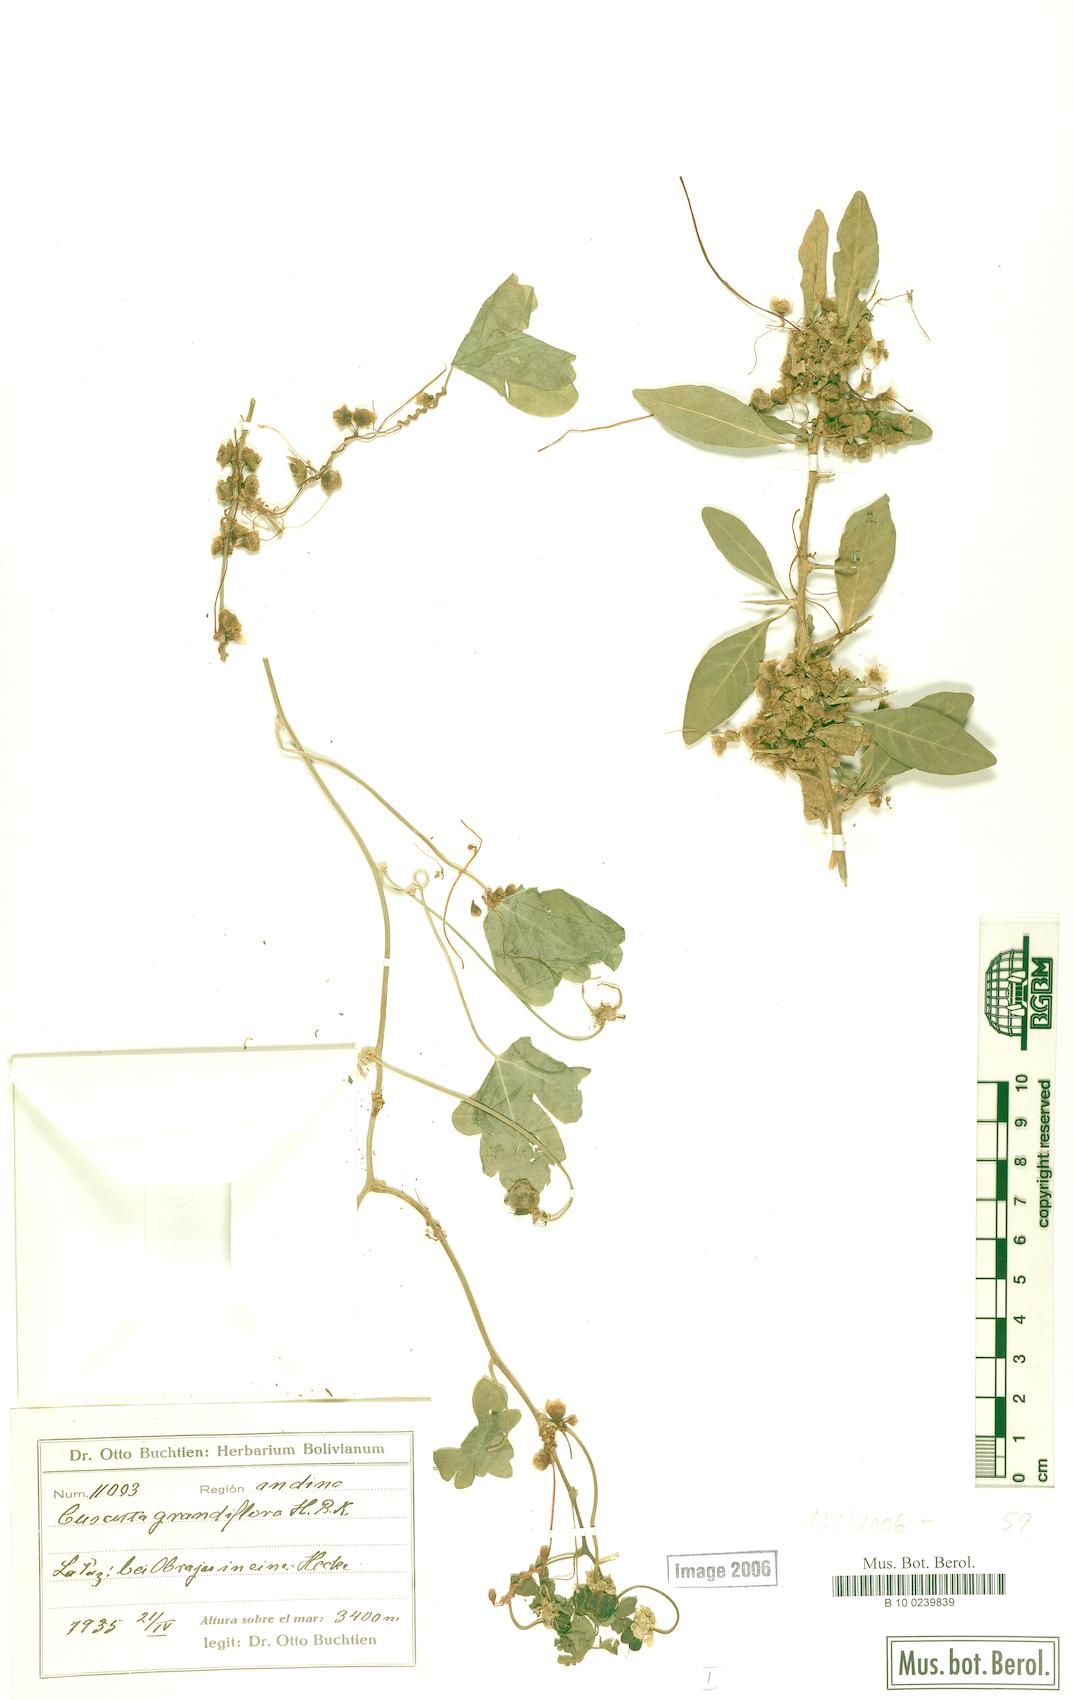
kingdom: Plantae
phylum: Tracheophyta
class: Magnoliopsida
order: Solanales
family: Convolvulaceae
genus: Cuscuta
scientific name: Cuscuta grandiflora
